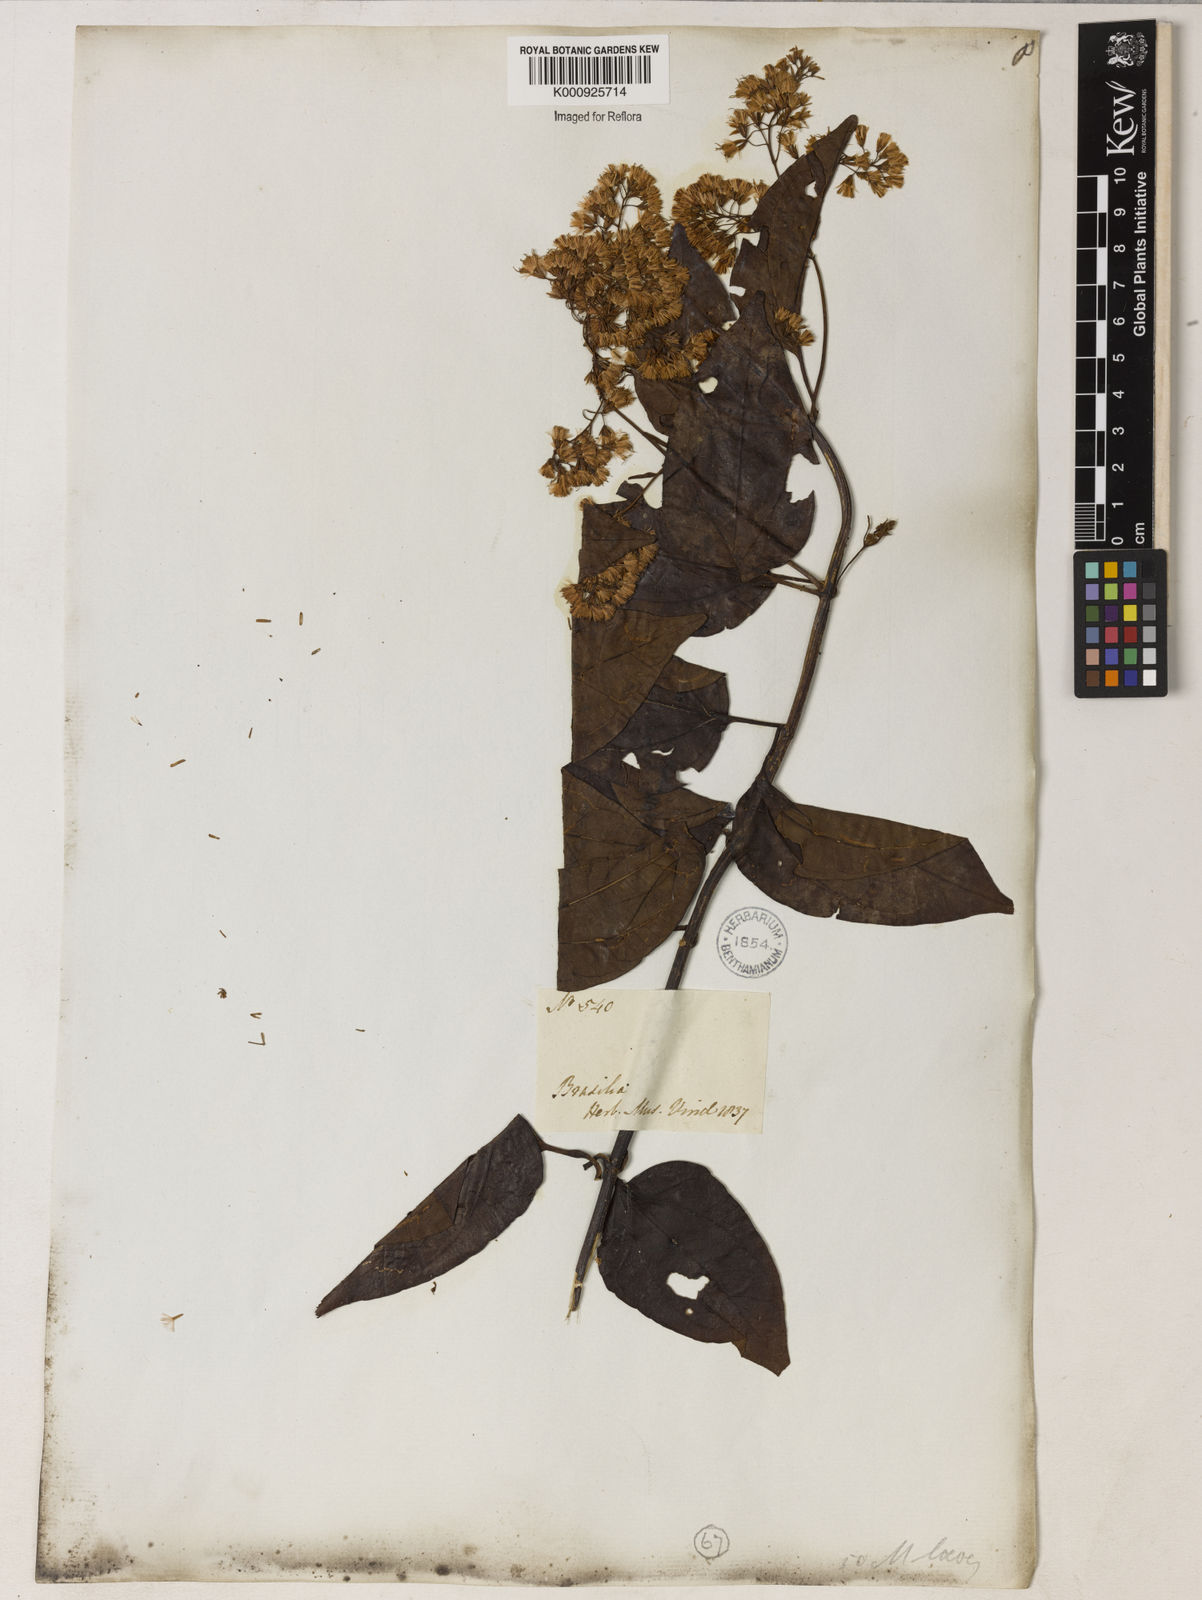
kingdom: Plantae
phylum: Tracheophyta
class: Magnoliopsida
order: Asterales
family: Asteraceae
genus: Mikania
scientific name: Mikania trinervis
